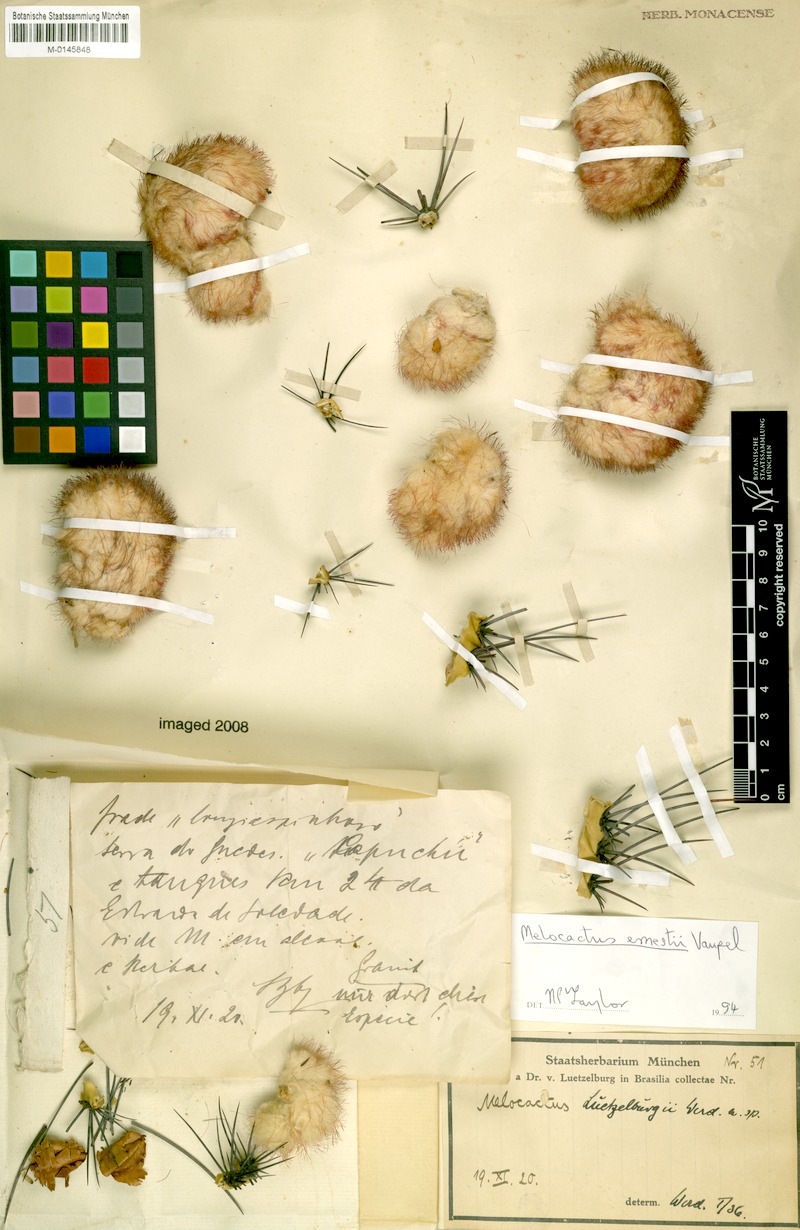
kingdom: Plantae
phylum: Tracheophyta
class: Magnoliopsida
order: Caryophyllales
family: Cactaceae
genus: Melocactus
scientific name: Melocactus ernestii
